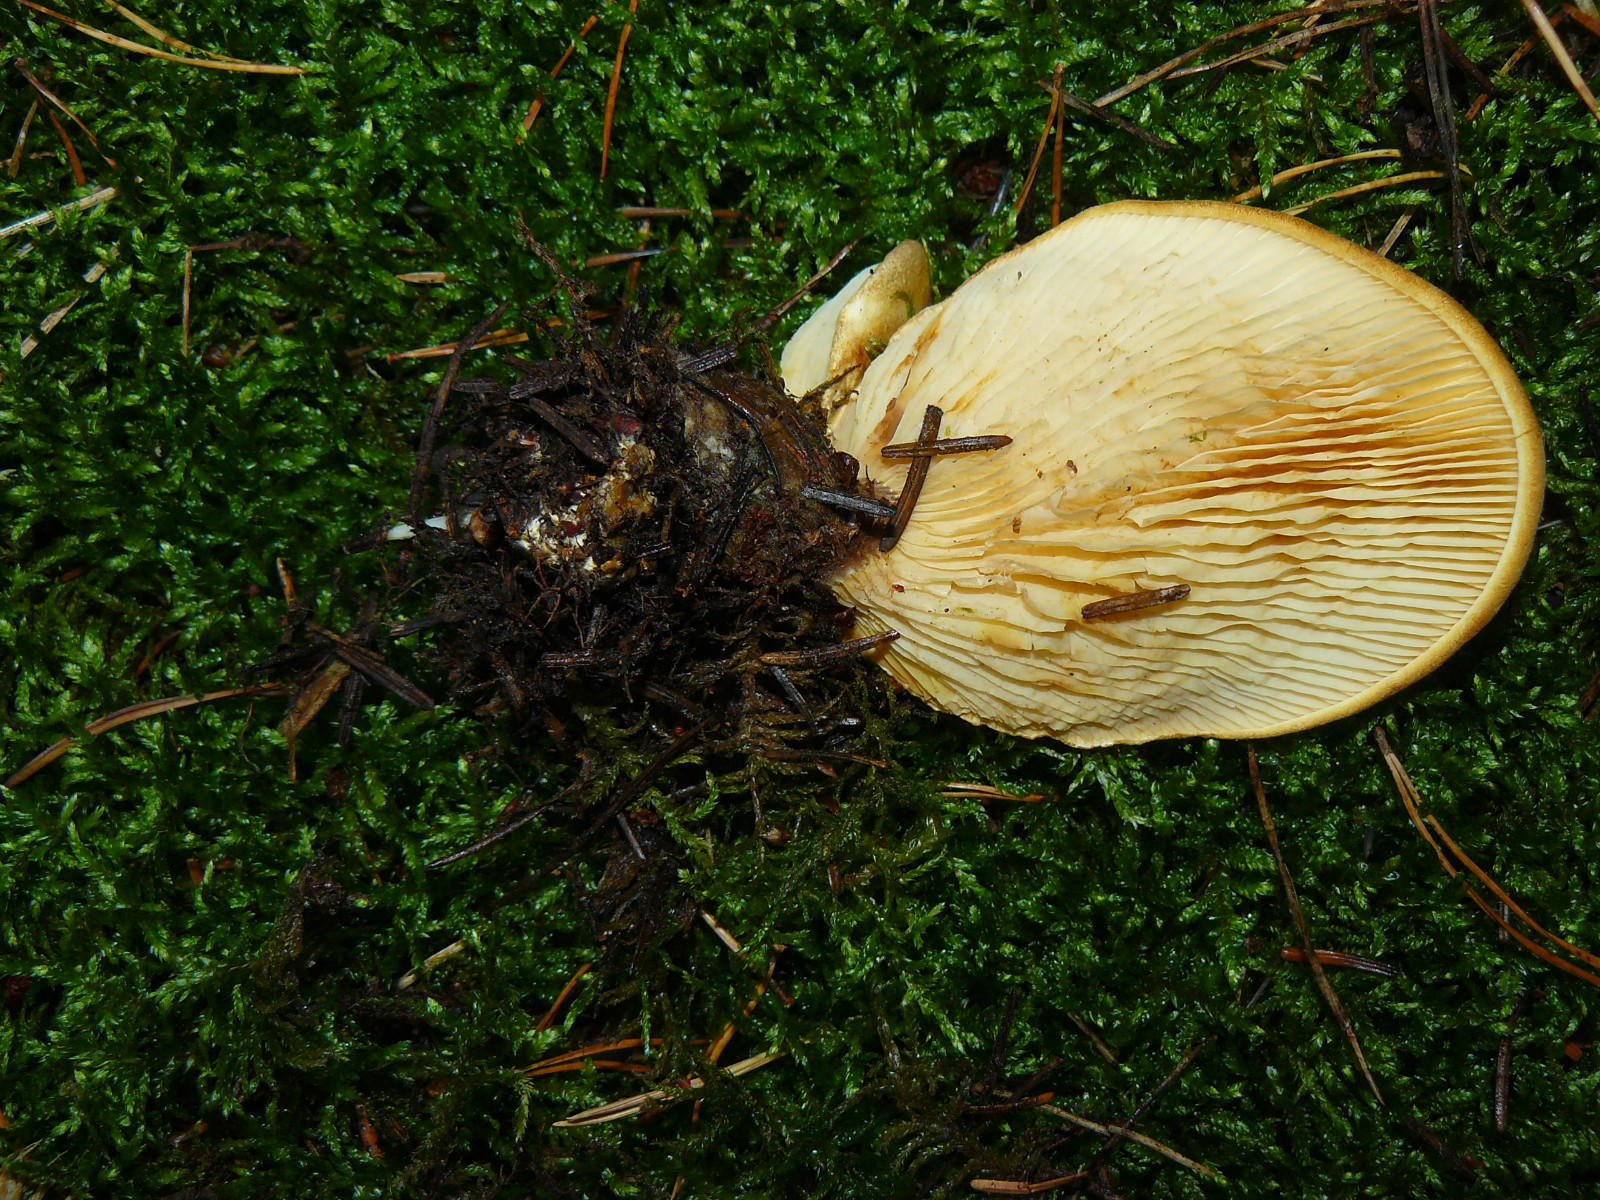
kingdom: Fungi
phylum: Basidiomycota
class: Agaricomycetes
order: Boletales
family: Tapinellaceae
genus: Tapinella
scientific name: Tapinella atrotomentosa
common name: sortfiltet viftesvamp
